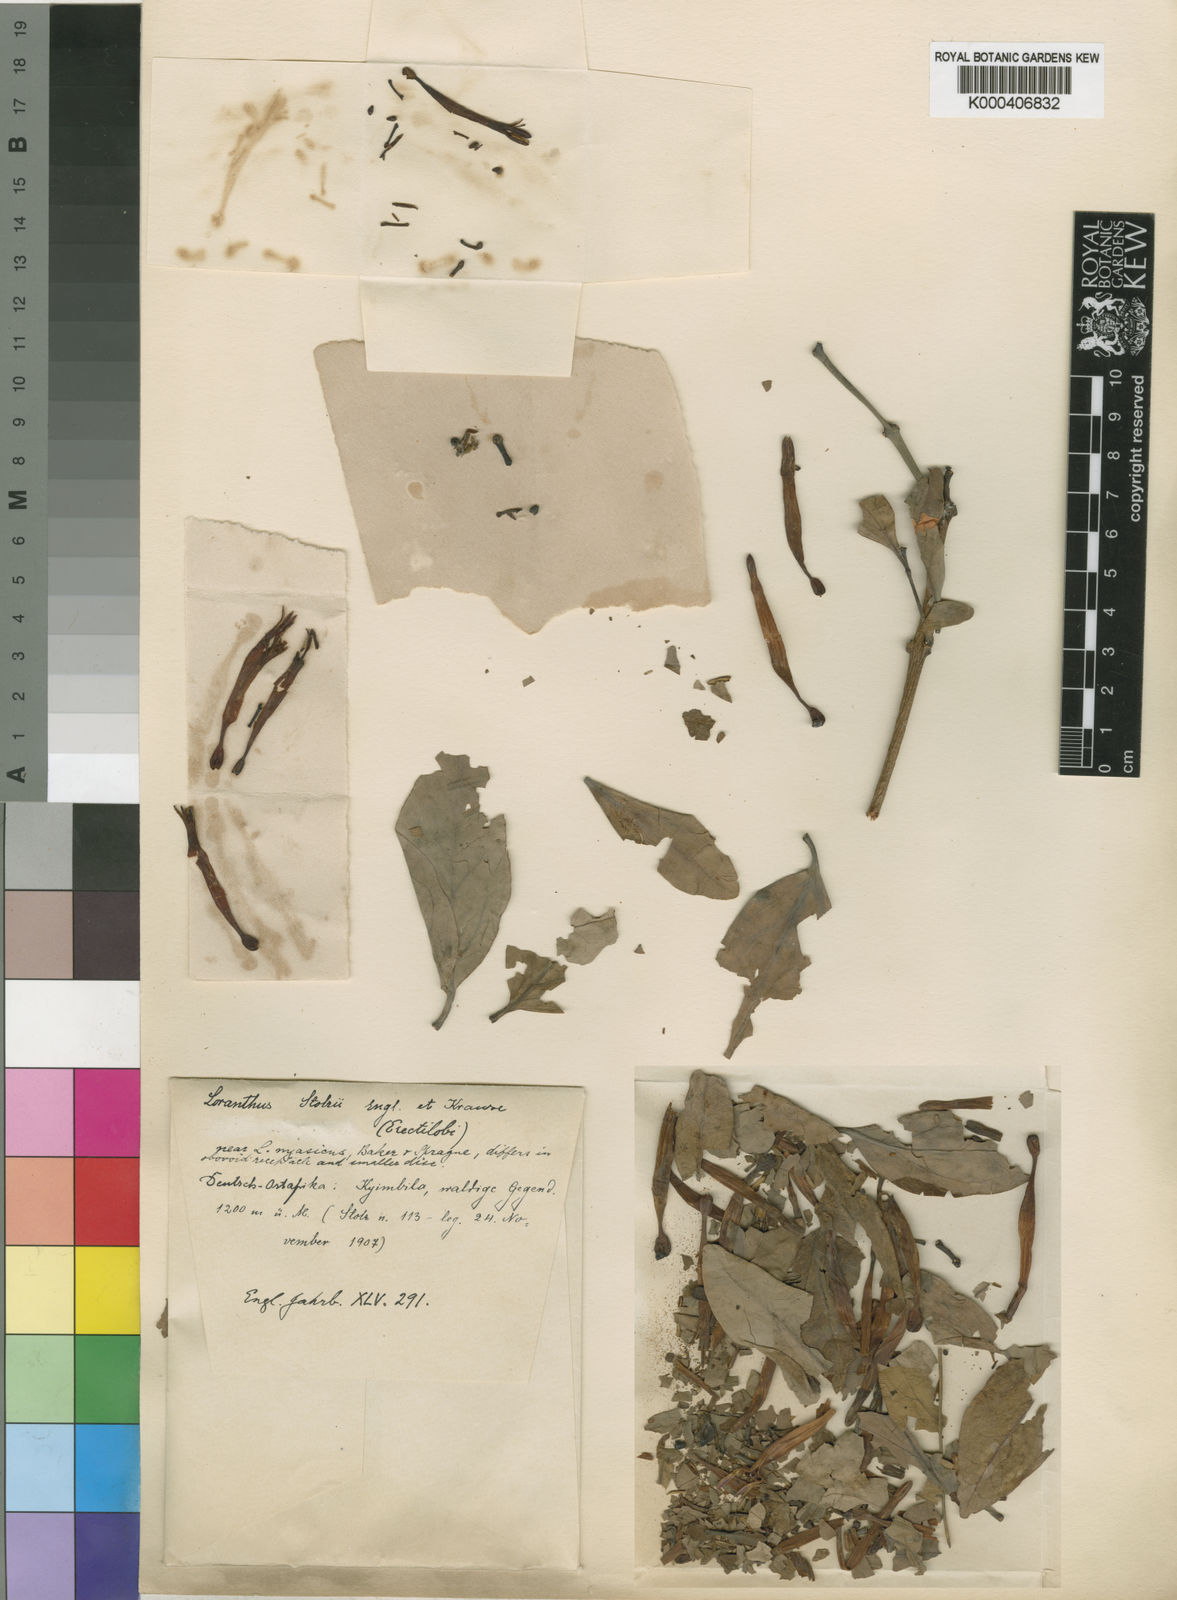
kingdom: Plantae
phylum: Tracheophyta
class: Magnoliopsida
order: Santalales
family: Loranthaceae
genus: Agelanthus
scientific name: Agelanthus nyasicus
